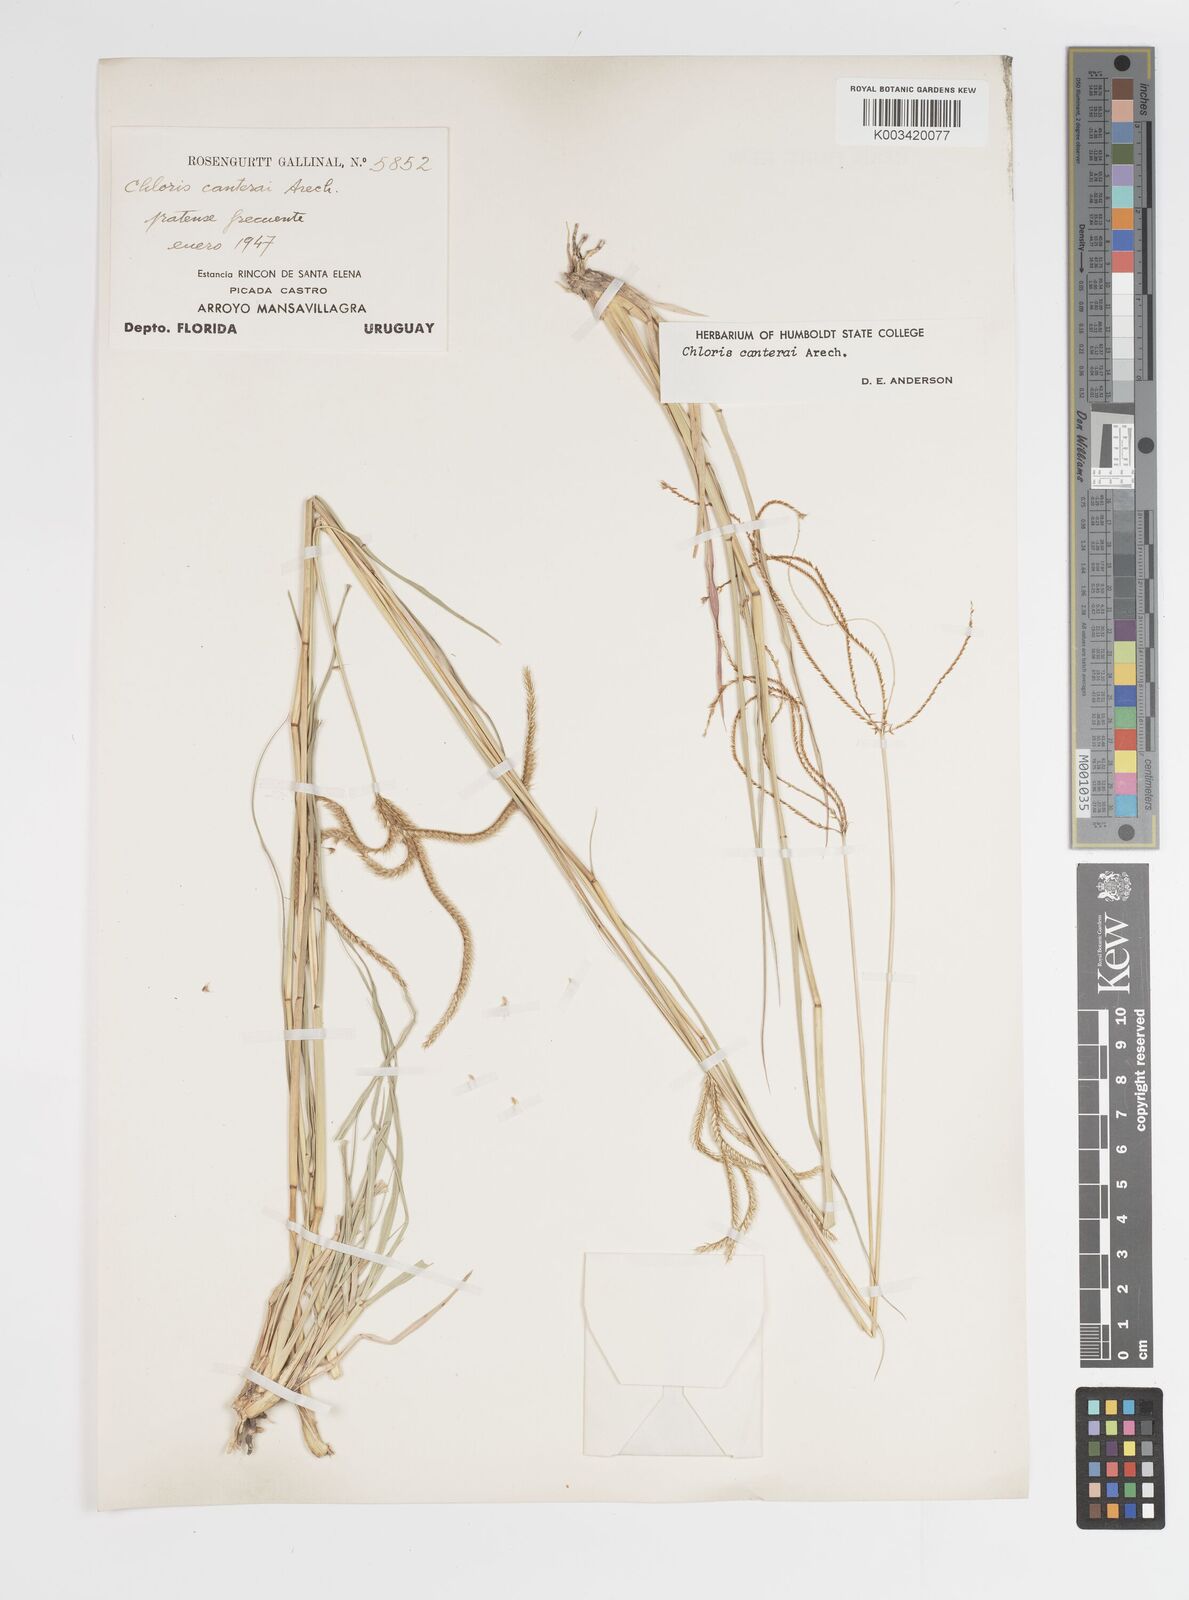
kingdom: Plantae
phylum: Tracheophyta
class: Liliopsida
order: Poales
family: Poaceae
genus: Stapfochloa
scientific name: Stapfochloa canterae
